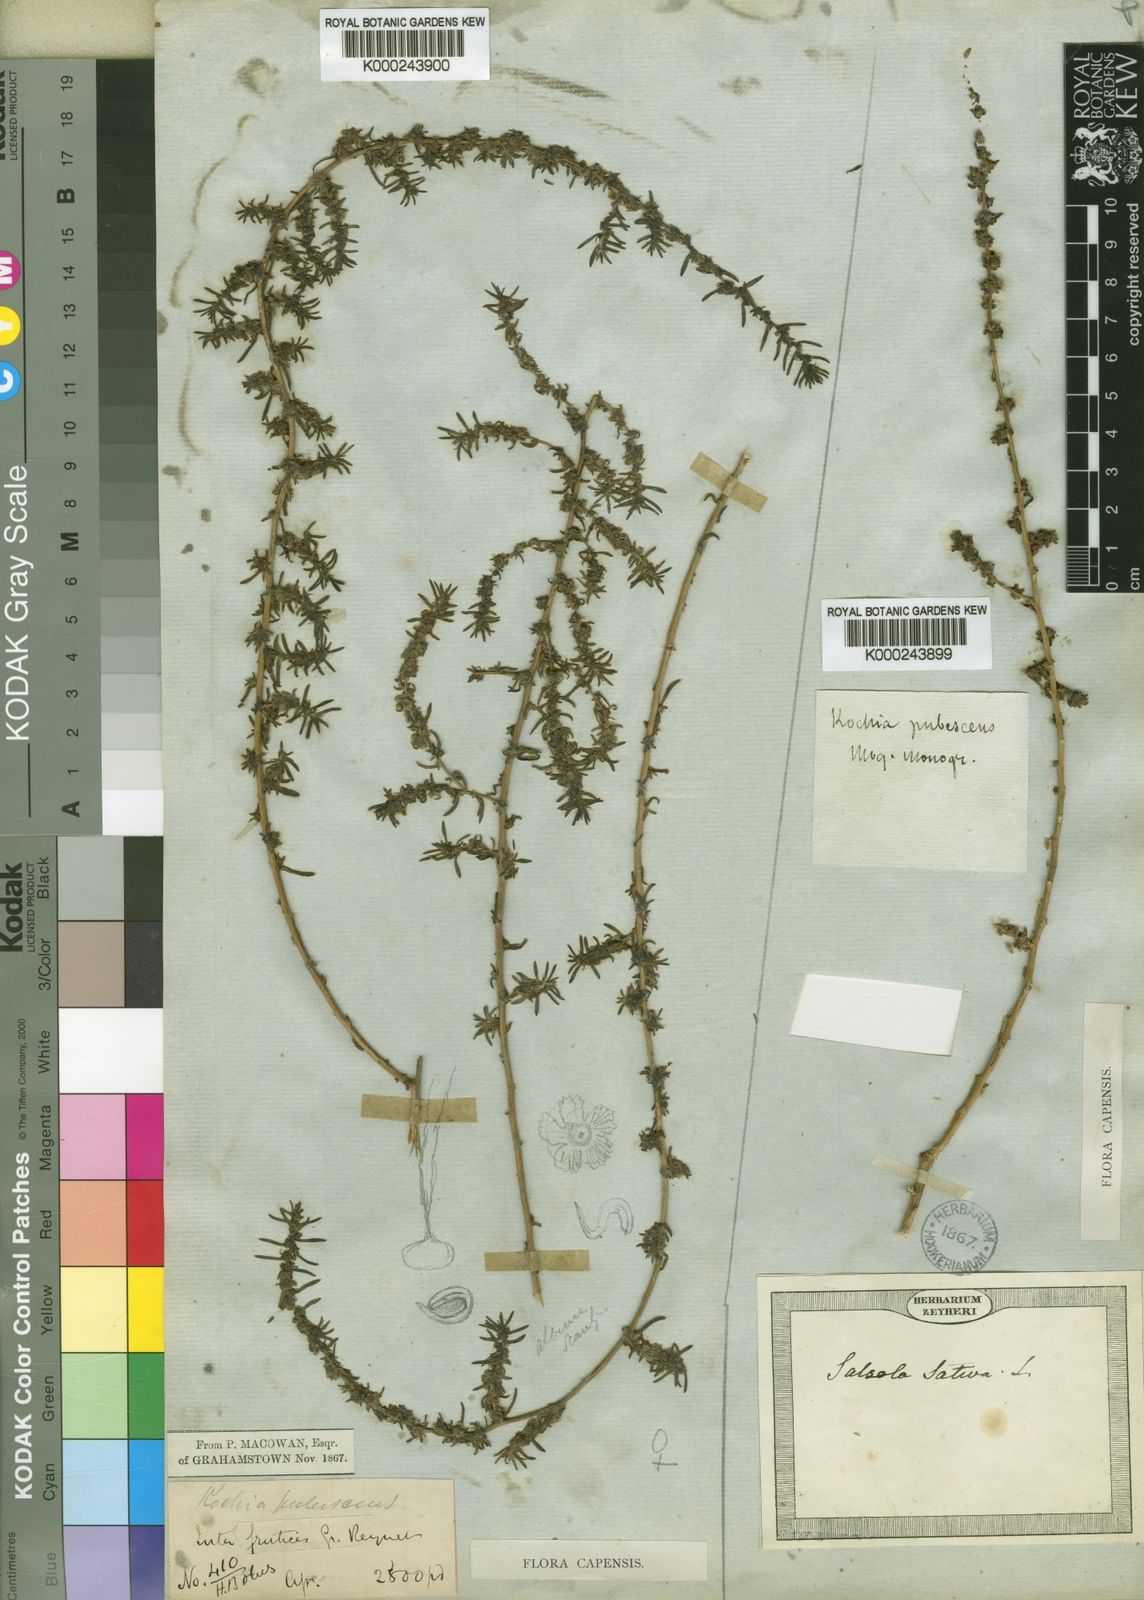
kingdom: Plantae
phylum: Tracheophyta
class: Magnoliopsida
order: Caryophyllales
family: Amaranthaceae
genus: Bassia
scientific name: Bassia salsoloides
